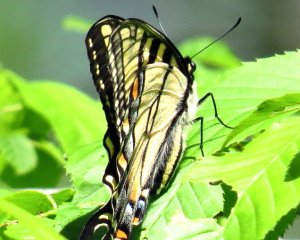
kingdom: Animalia
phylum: Arthropoda
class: Insecta
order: Lepidoptera
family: Papilionidae
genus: Pterourus
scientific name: Pterourus canadensis
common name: Canadian Tiger Swallowtail
